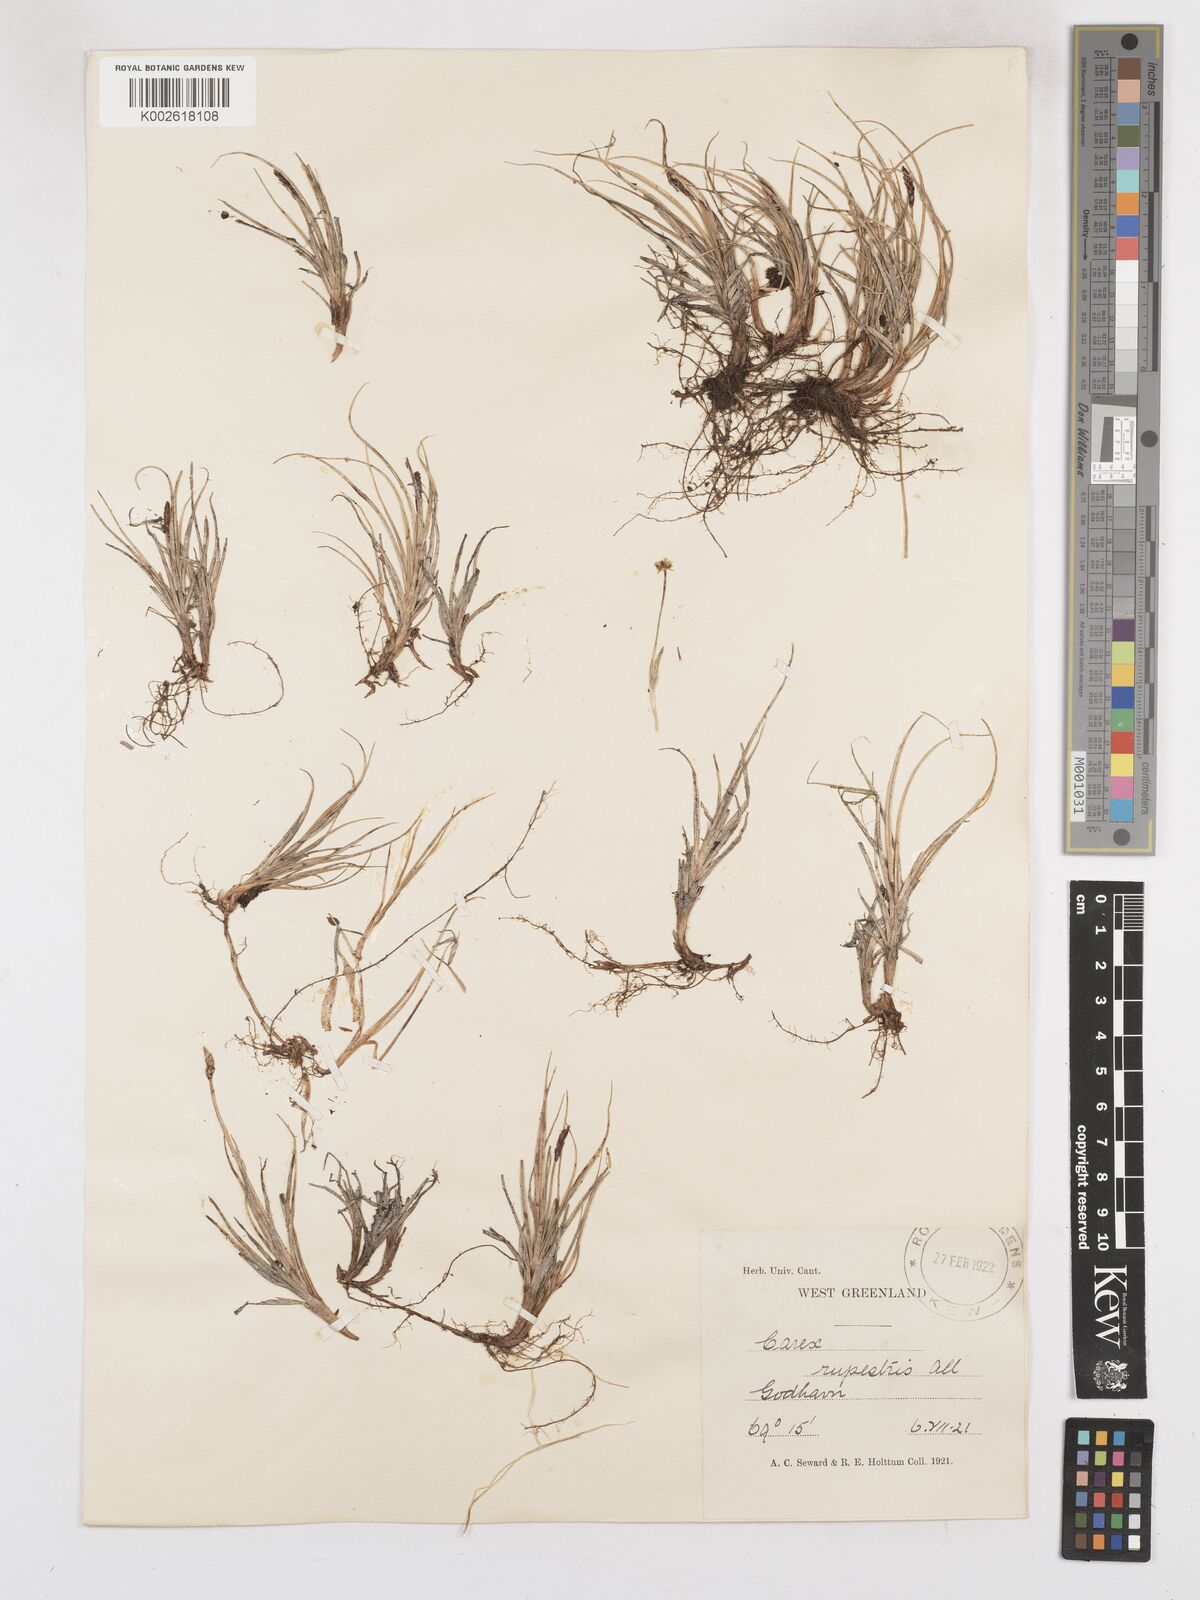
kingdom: Plantae
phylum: Tracheophyta
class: Liliopsida
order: Poales
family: Cyperaceae
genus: Carex
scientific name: Carex rupestris
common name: Rock sedge
